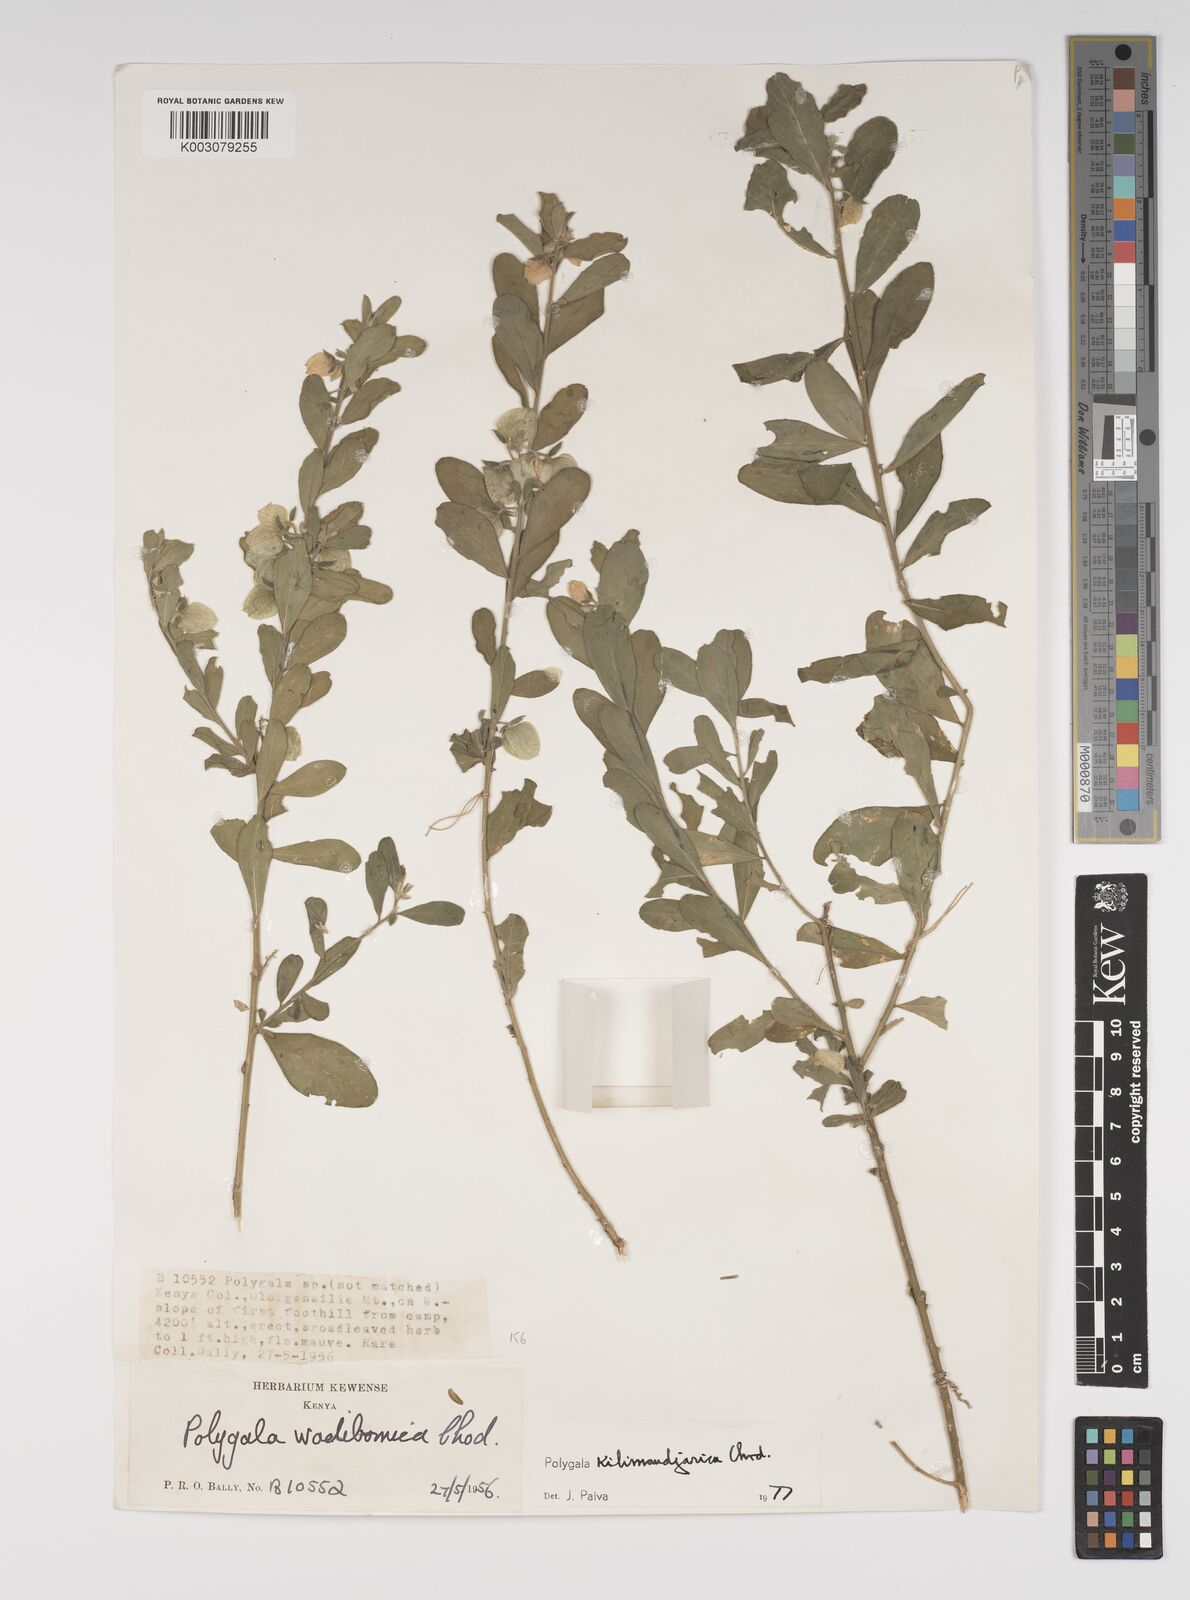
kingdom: Plantae
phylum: Tracheophyta
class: Magnoliopsida
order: Fabales
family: Polygalaceae
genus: Polygala
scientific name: Polygala kilimandjarica
